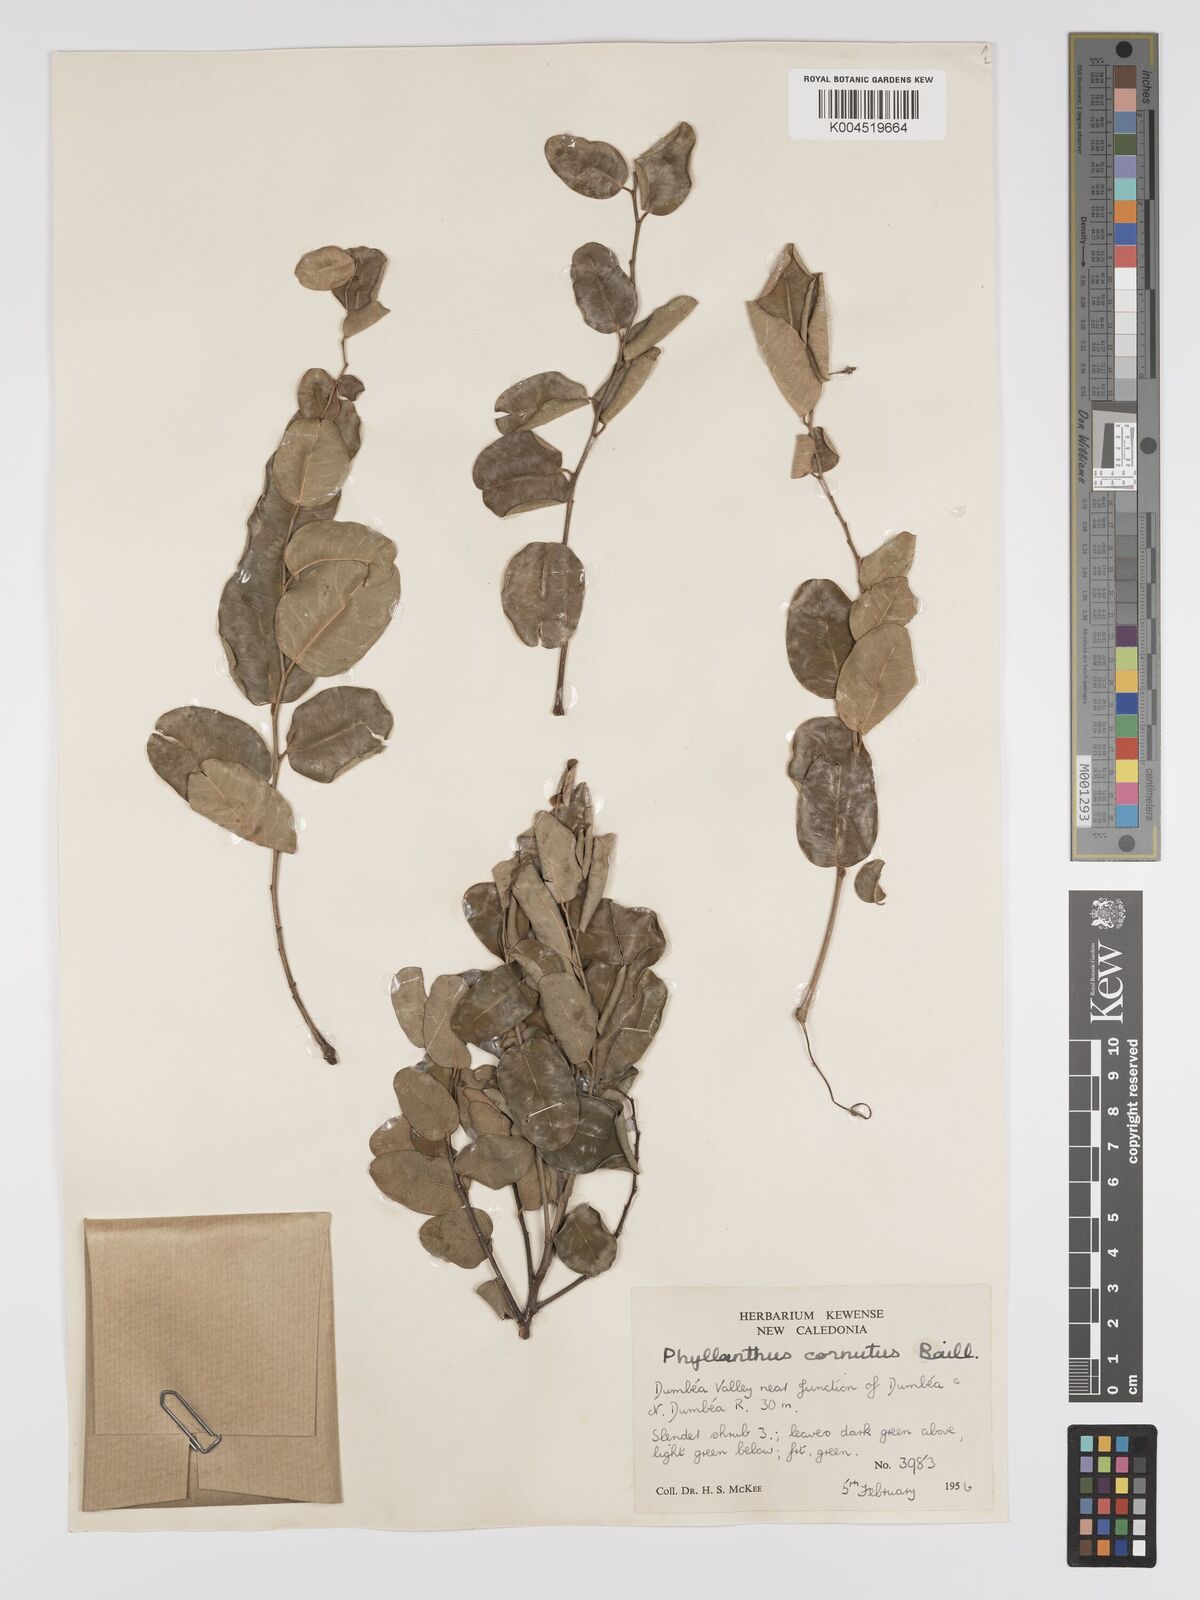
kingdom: Plantae
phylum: Tracheophyta
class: Magnoliopsida
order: Malpighiales
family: Phyllanthaceae
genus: Phyllanthus
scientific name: Phyllanthus cornutus
